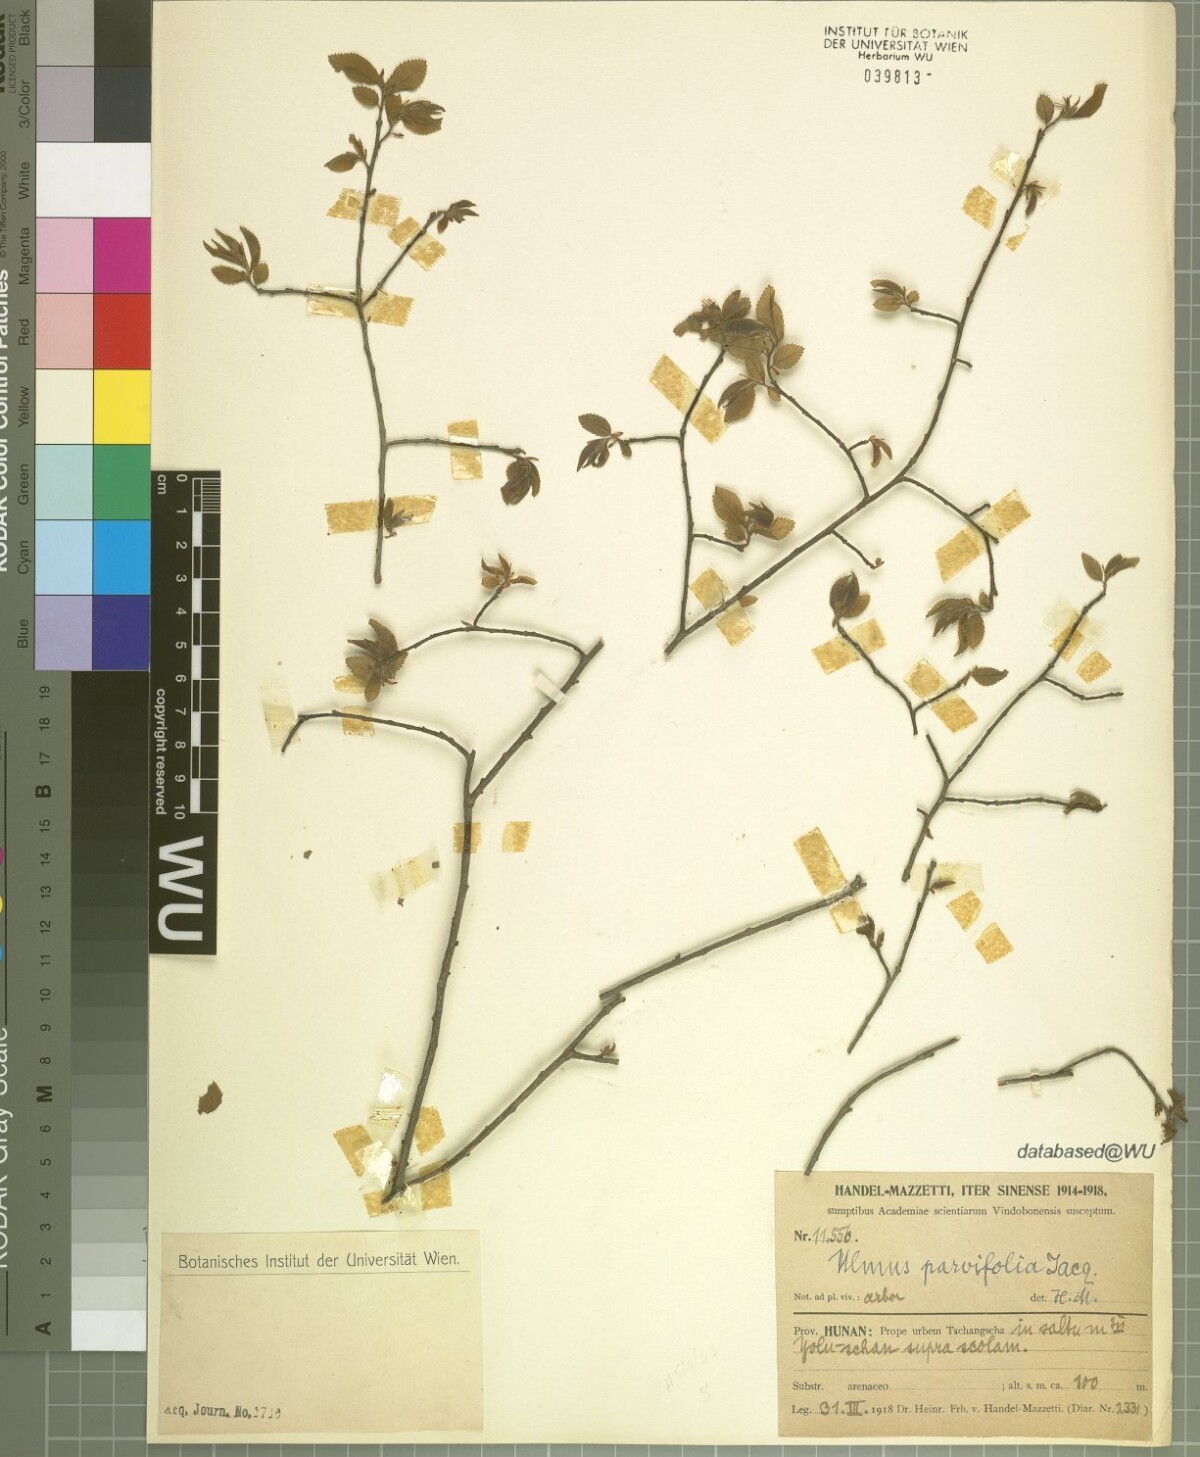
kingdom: Plantae
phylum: Tracheophyta
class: Magnoliopsida
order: Rosales
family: Ulmaceae
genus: Ulmus
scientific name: Ulmus parvifolia
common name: Chinese elm
